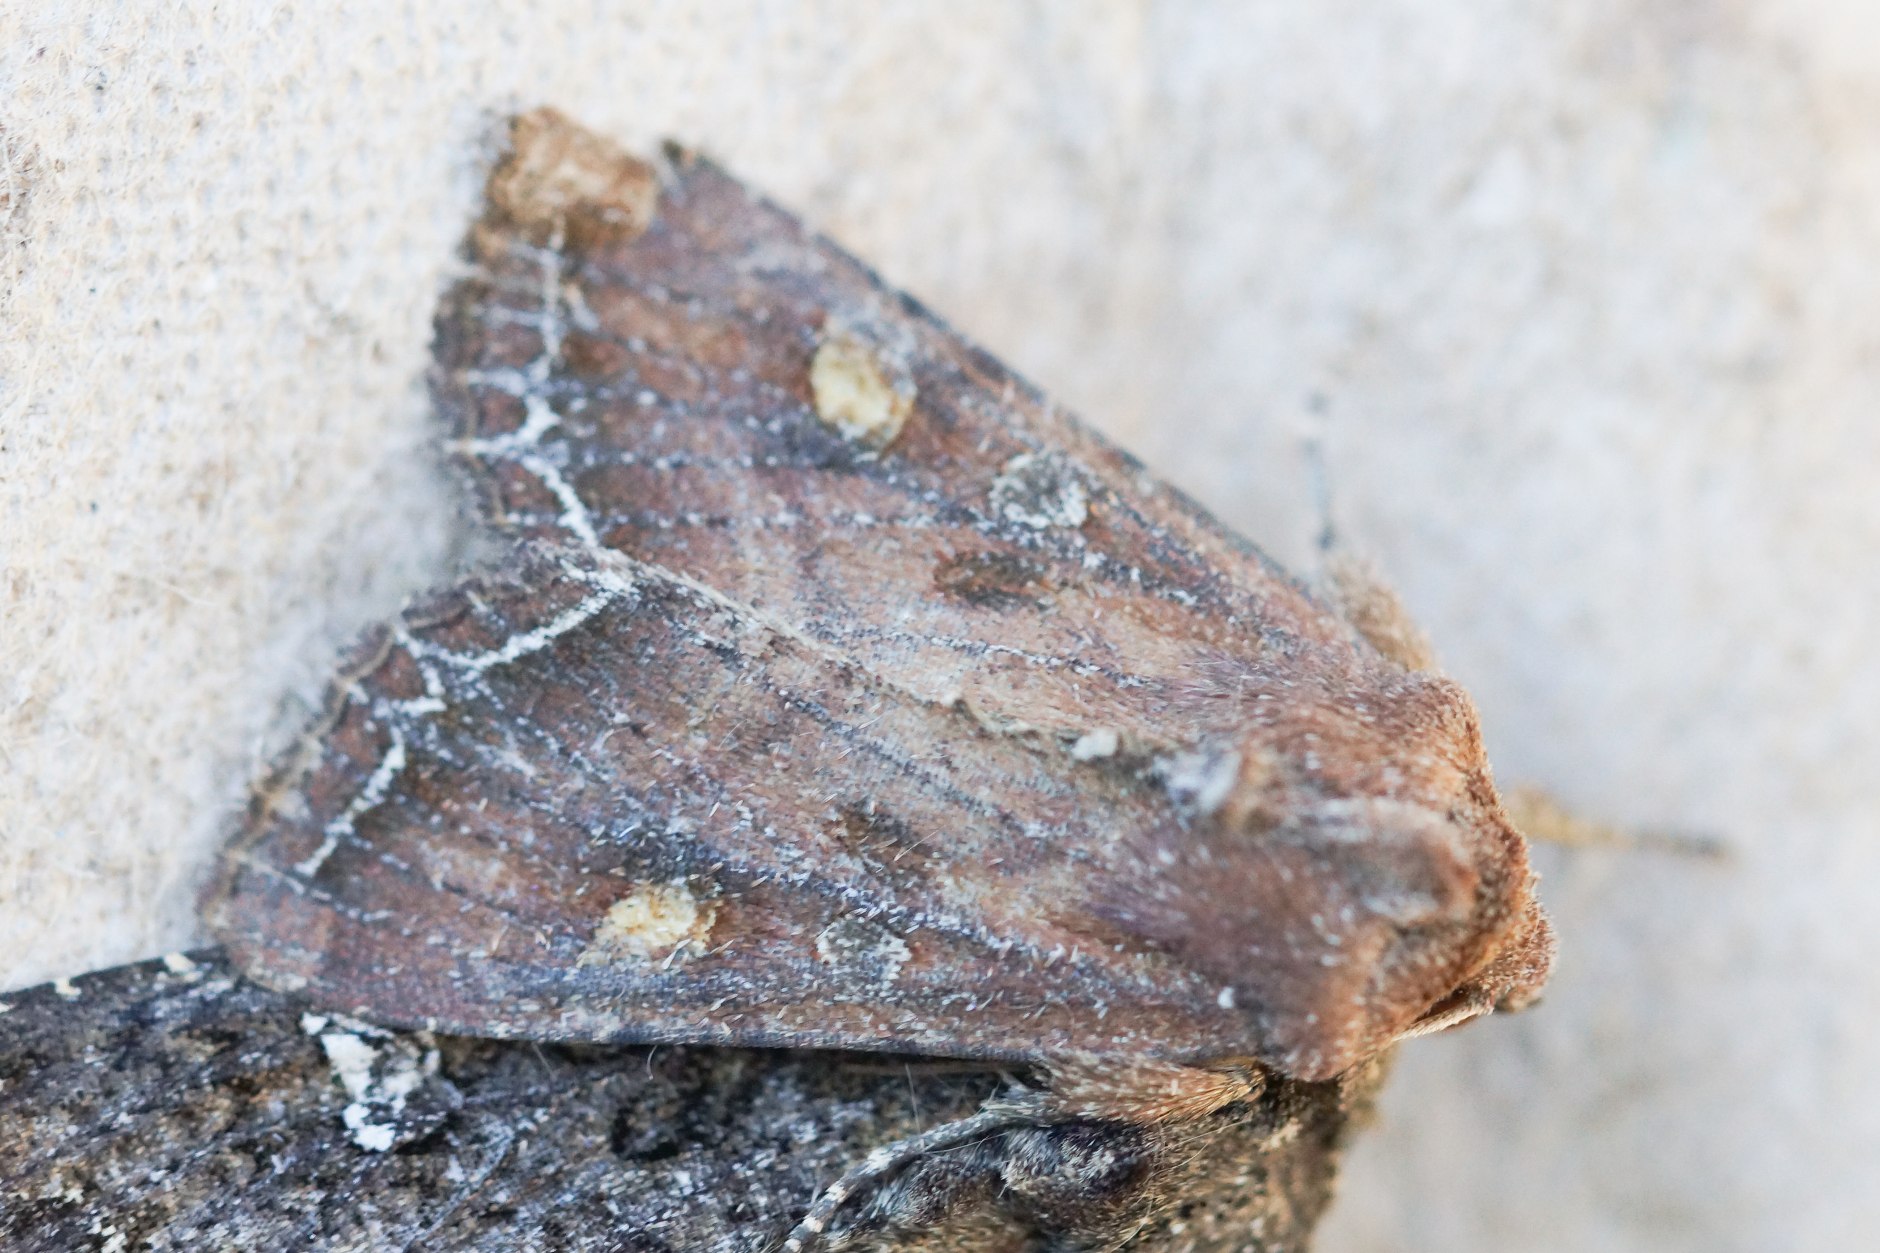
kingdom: Animalia
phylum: Arthropoda
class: Insecta
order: Lepidoptera
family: Noctuidae
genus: Lacanobia
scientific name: Lacanobia oleracea
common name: Haveugle
